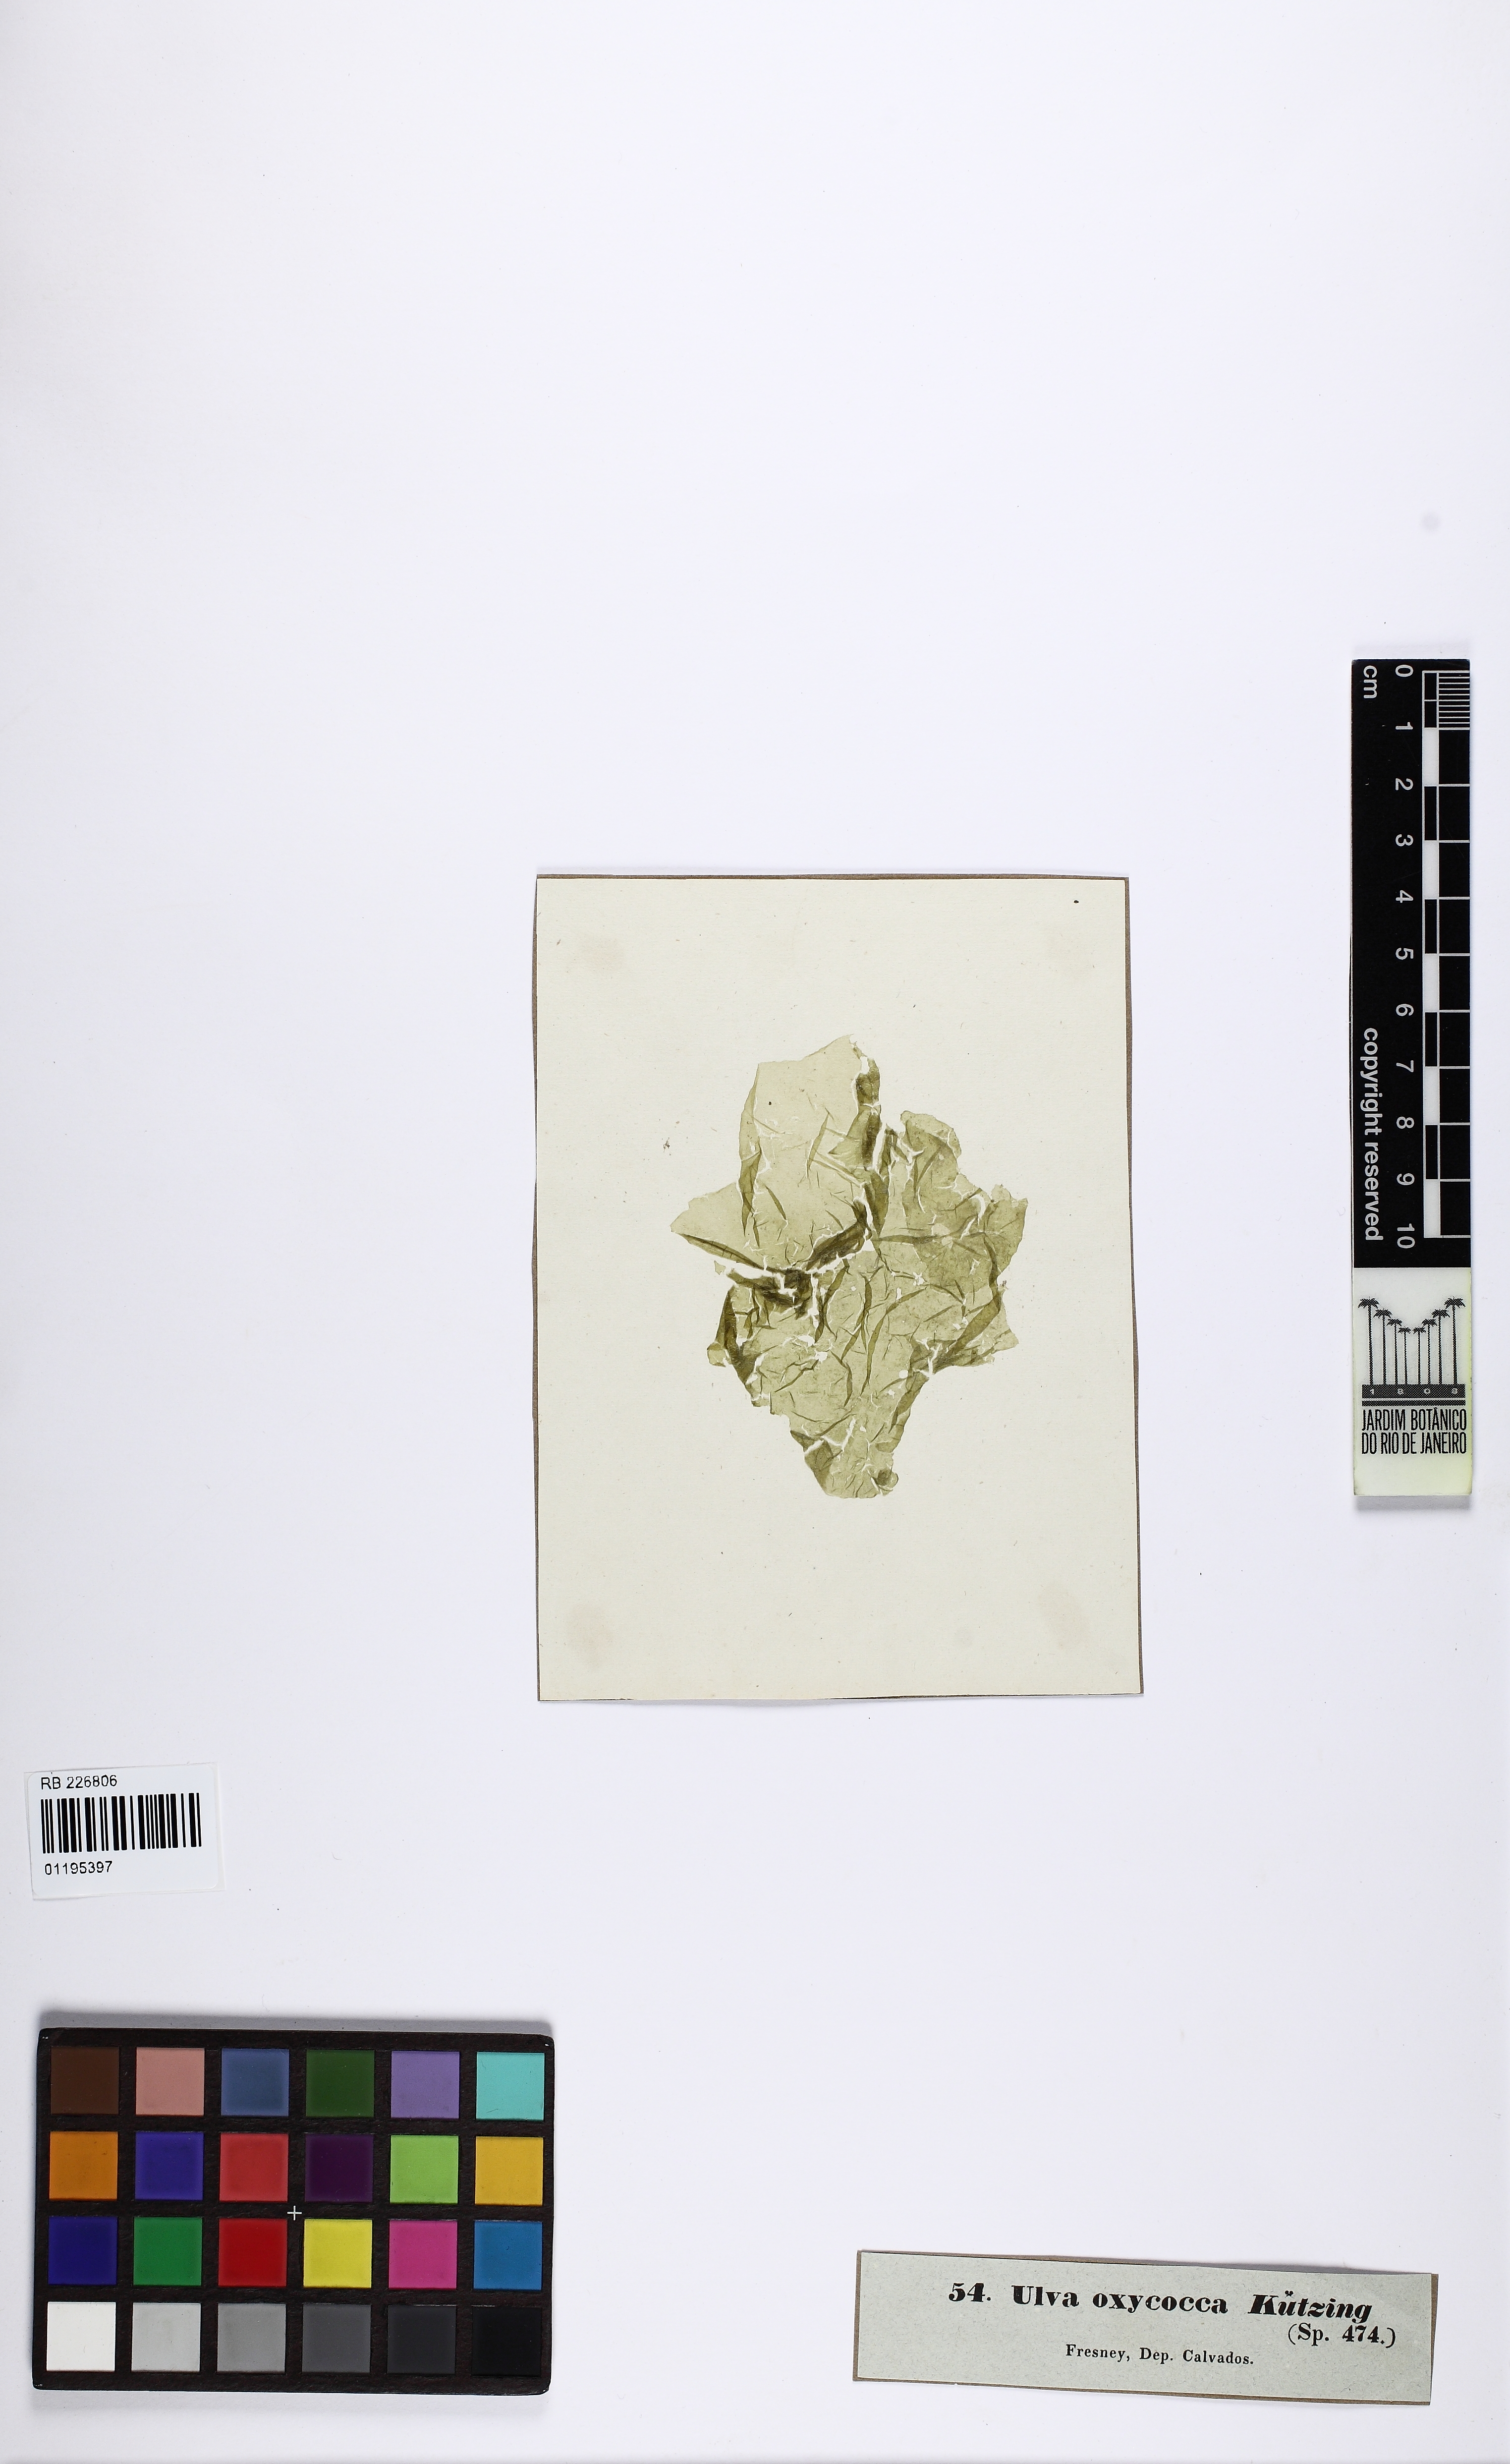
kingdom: Plantae
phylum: Chlorophyta
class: Ulvophyceae
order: Ulvales
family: Gayraliaceae
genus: Gayralia
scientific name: Gayralia oxysperma
